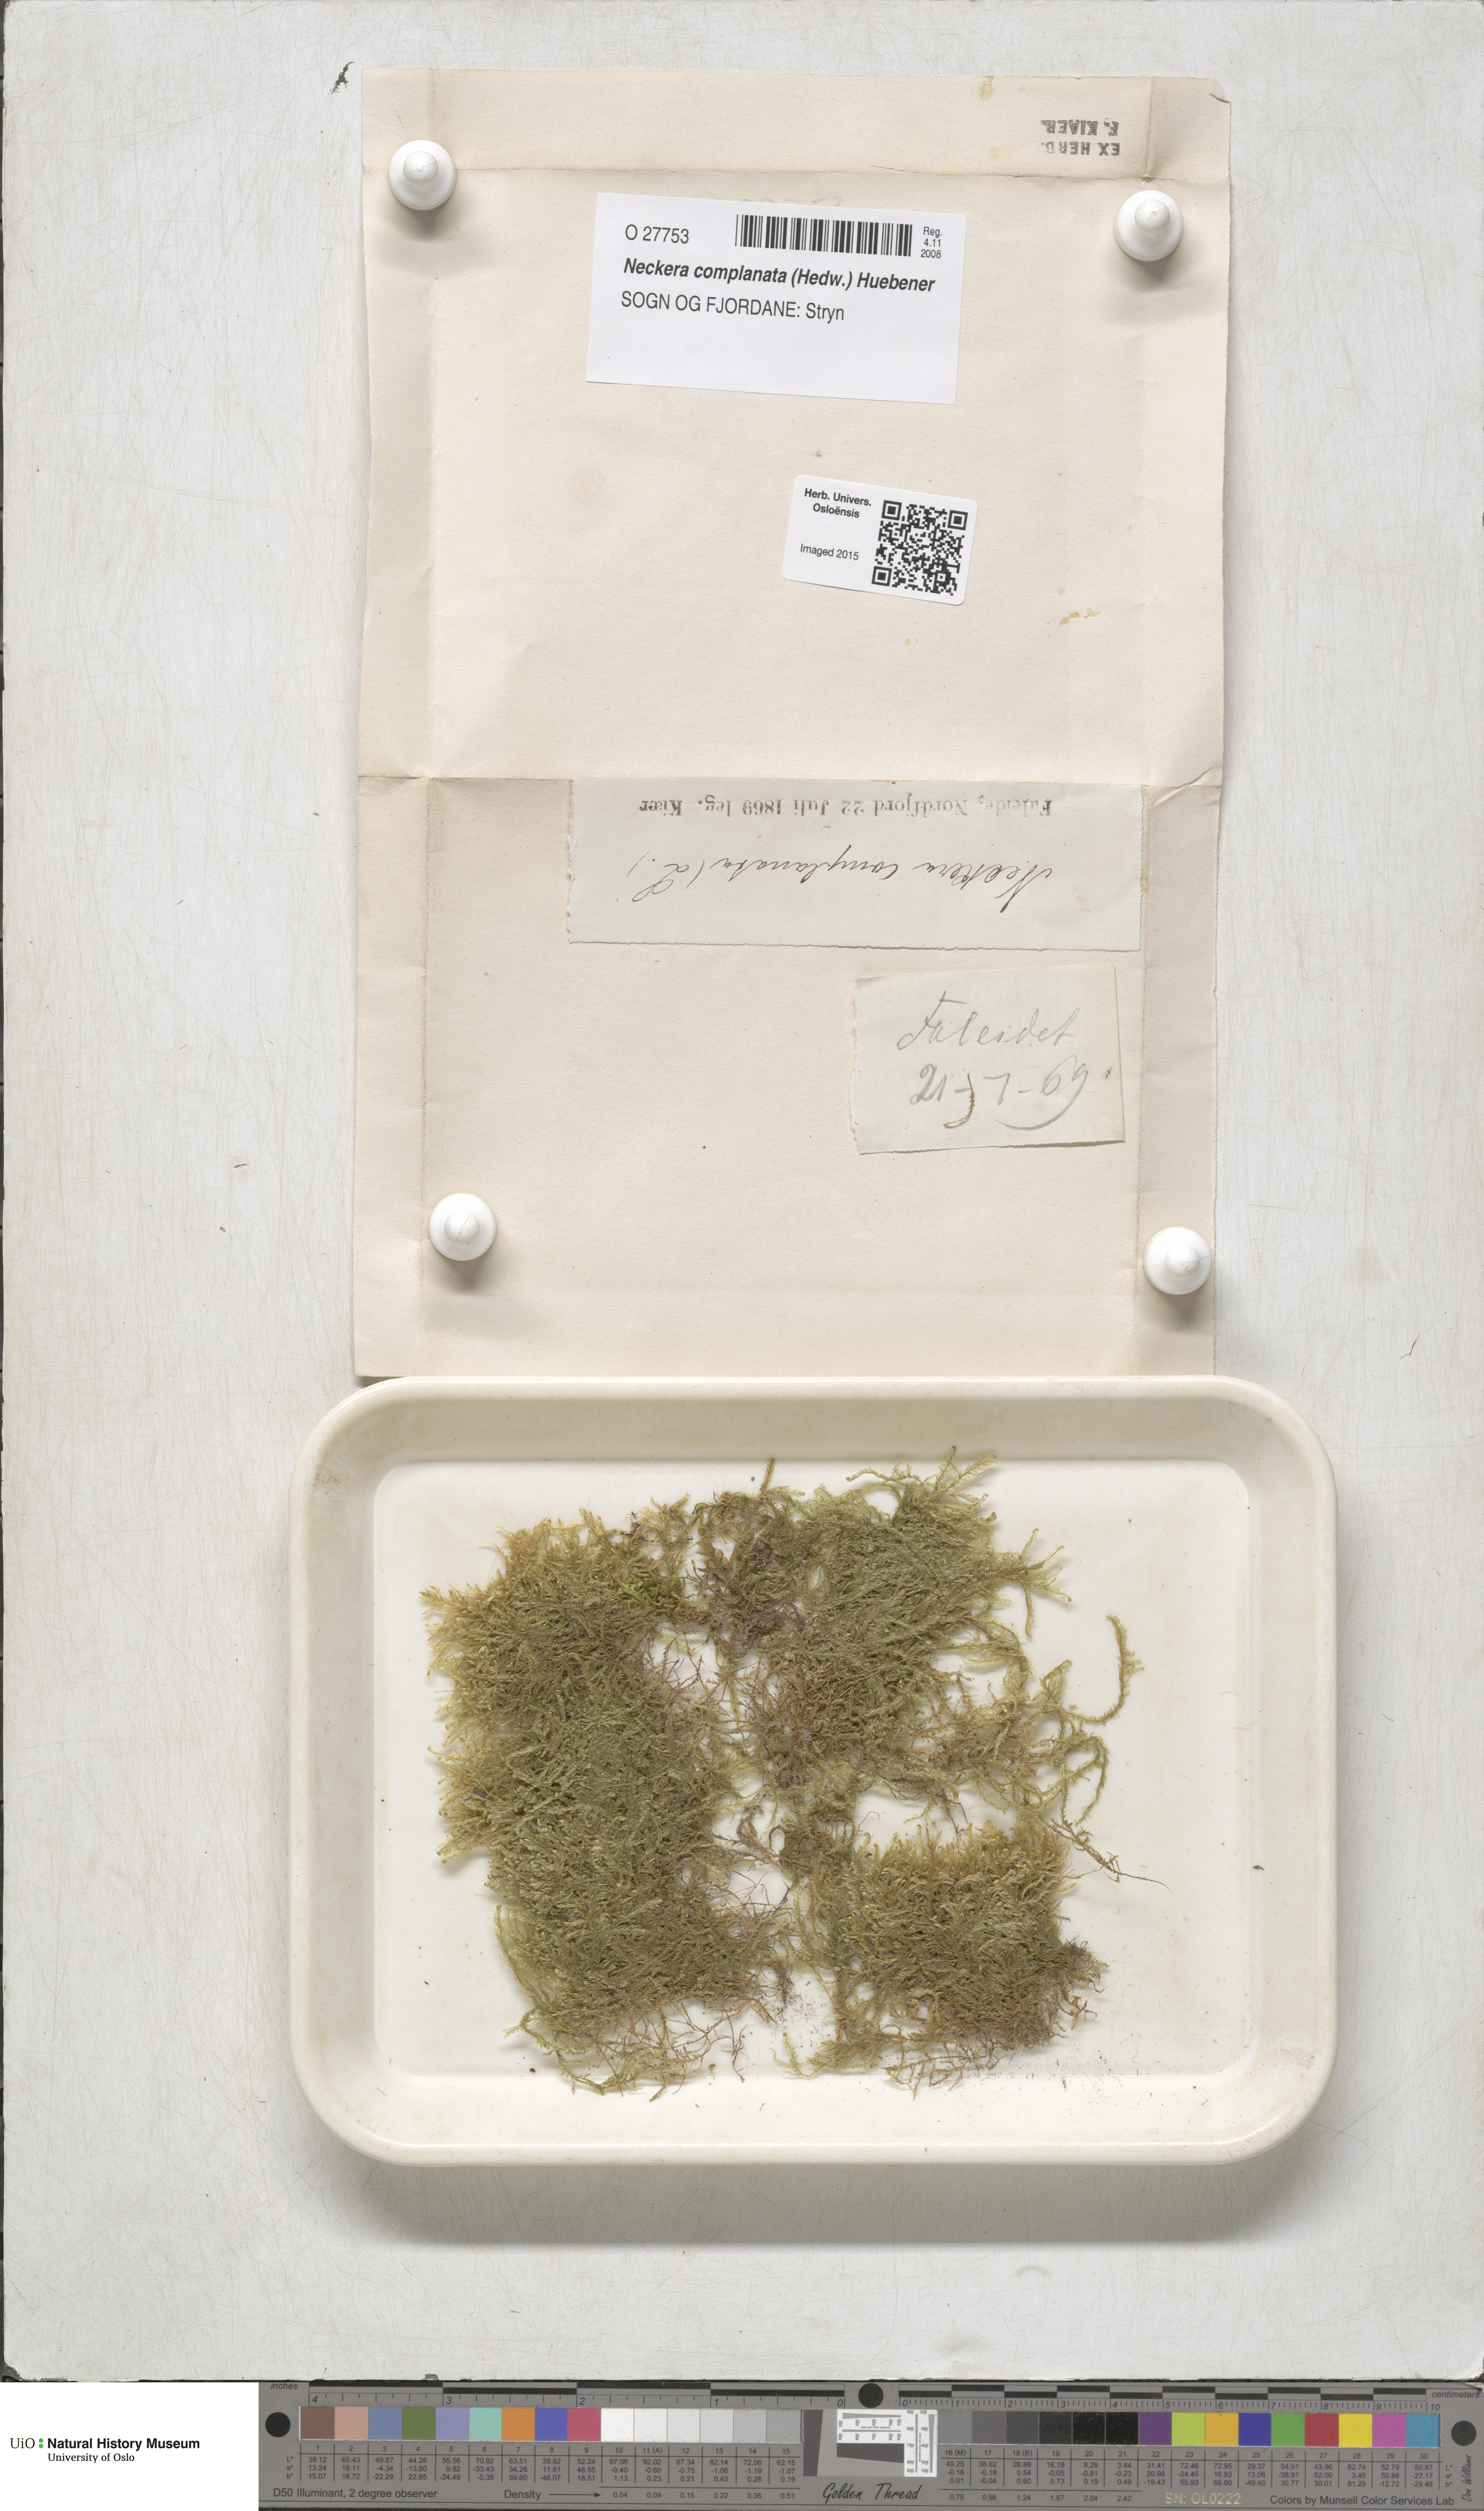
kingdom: Plantae
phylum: Bryophyta
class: Bryopsida
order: Hypnales
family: Neckeraceae
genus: Alleniella
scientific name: Alleniella complanata
